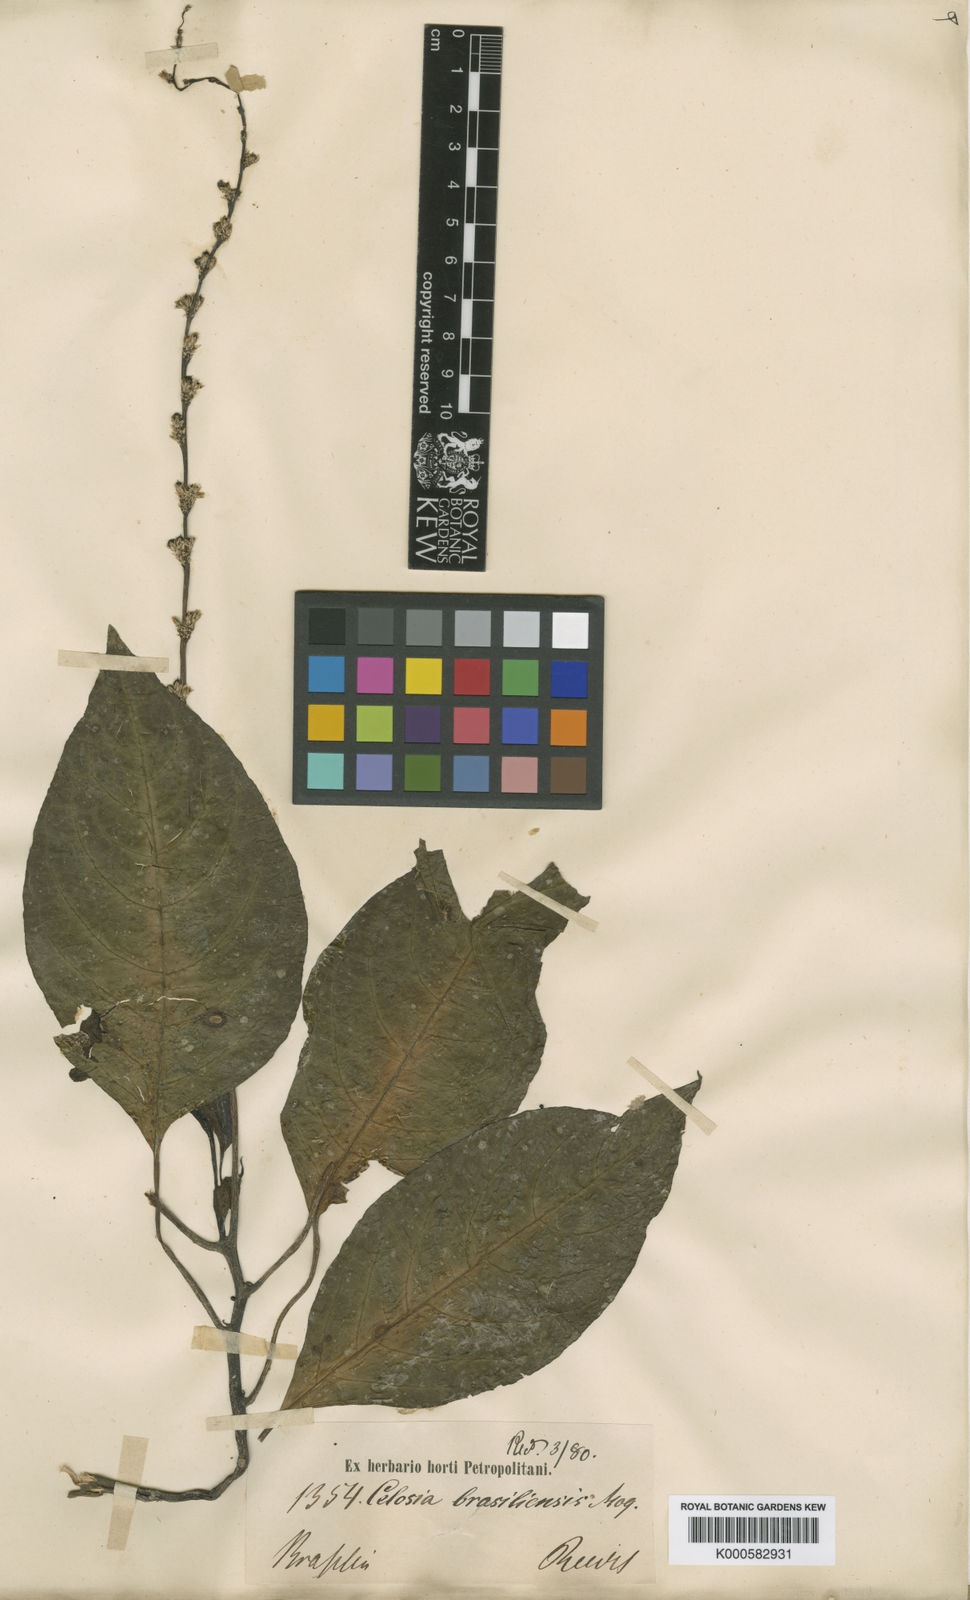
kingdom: Plantae
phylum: Tracheophyta
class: Magnoliopsida
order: Caryophyllales
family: Amaranthaceae
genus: Celosia
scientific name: Celosia grandifolia
